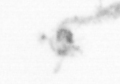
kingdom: Animalia
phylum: Arthropoda
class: Maxillopoda
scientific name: Maxillopoda
